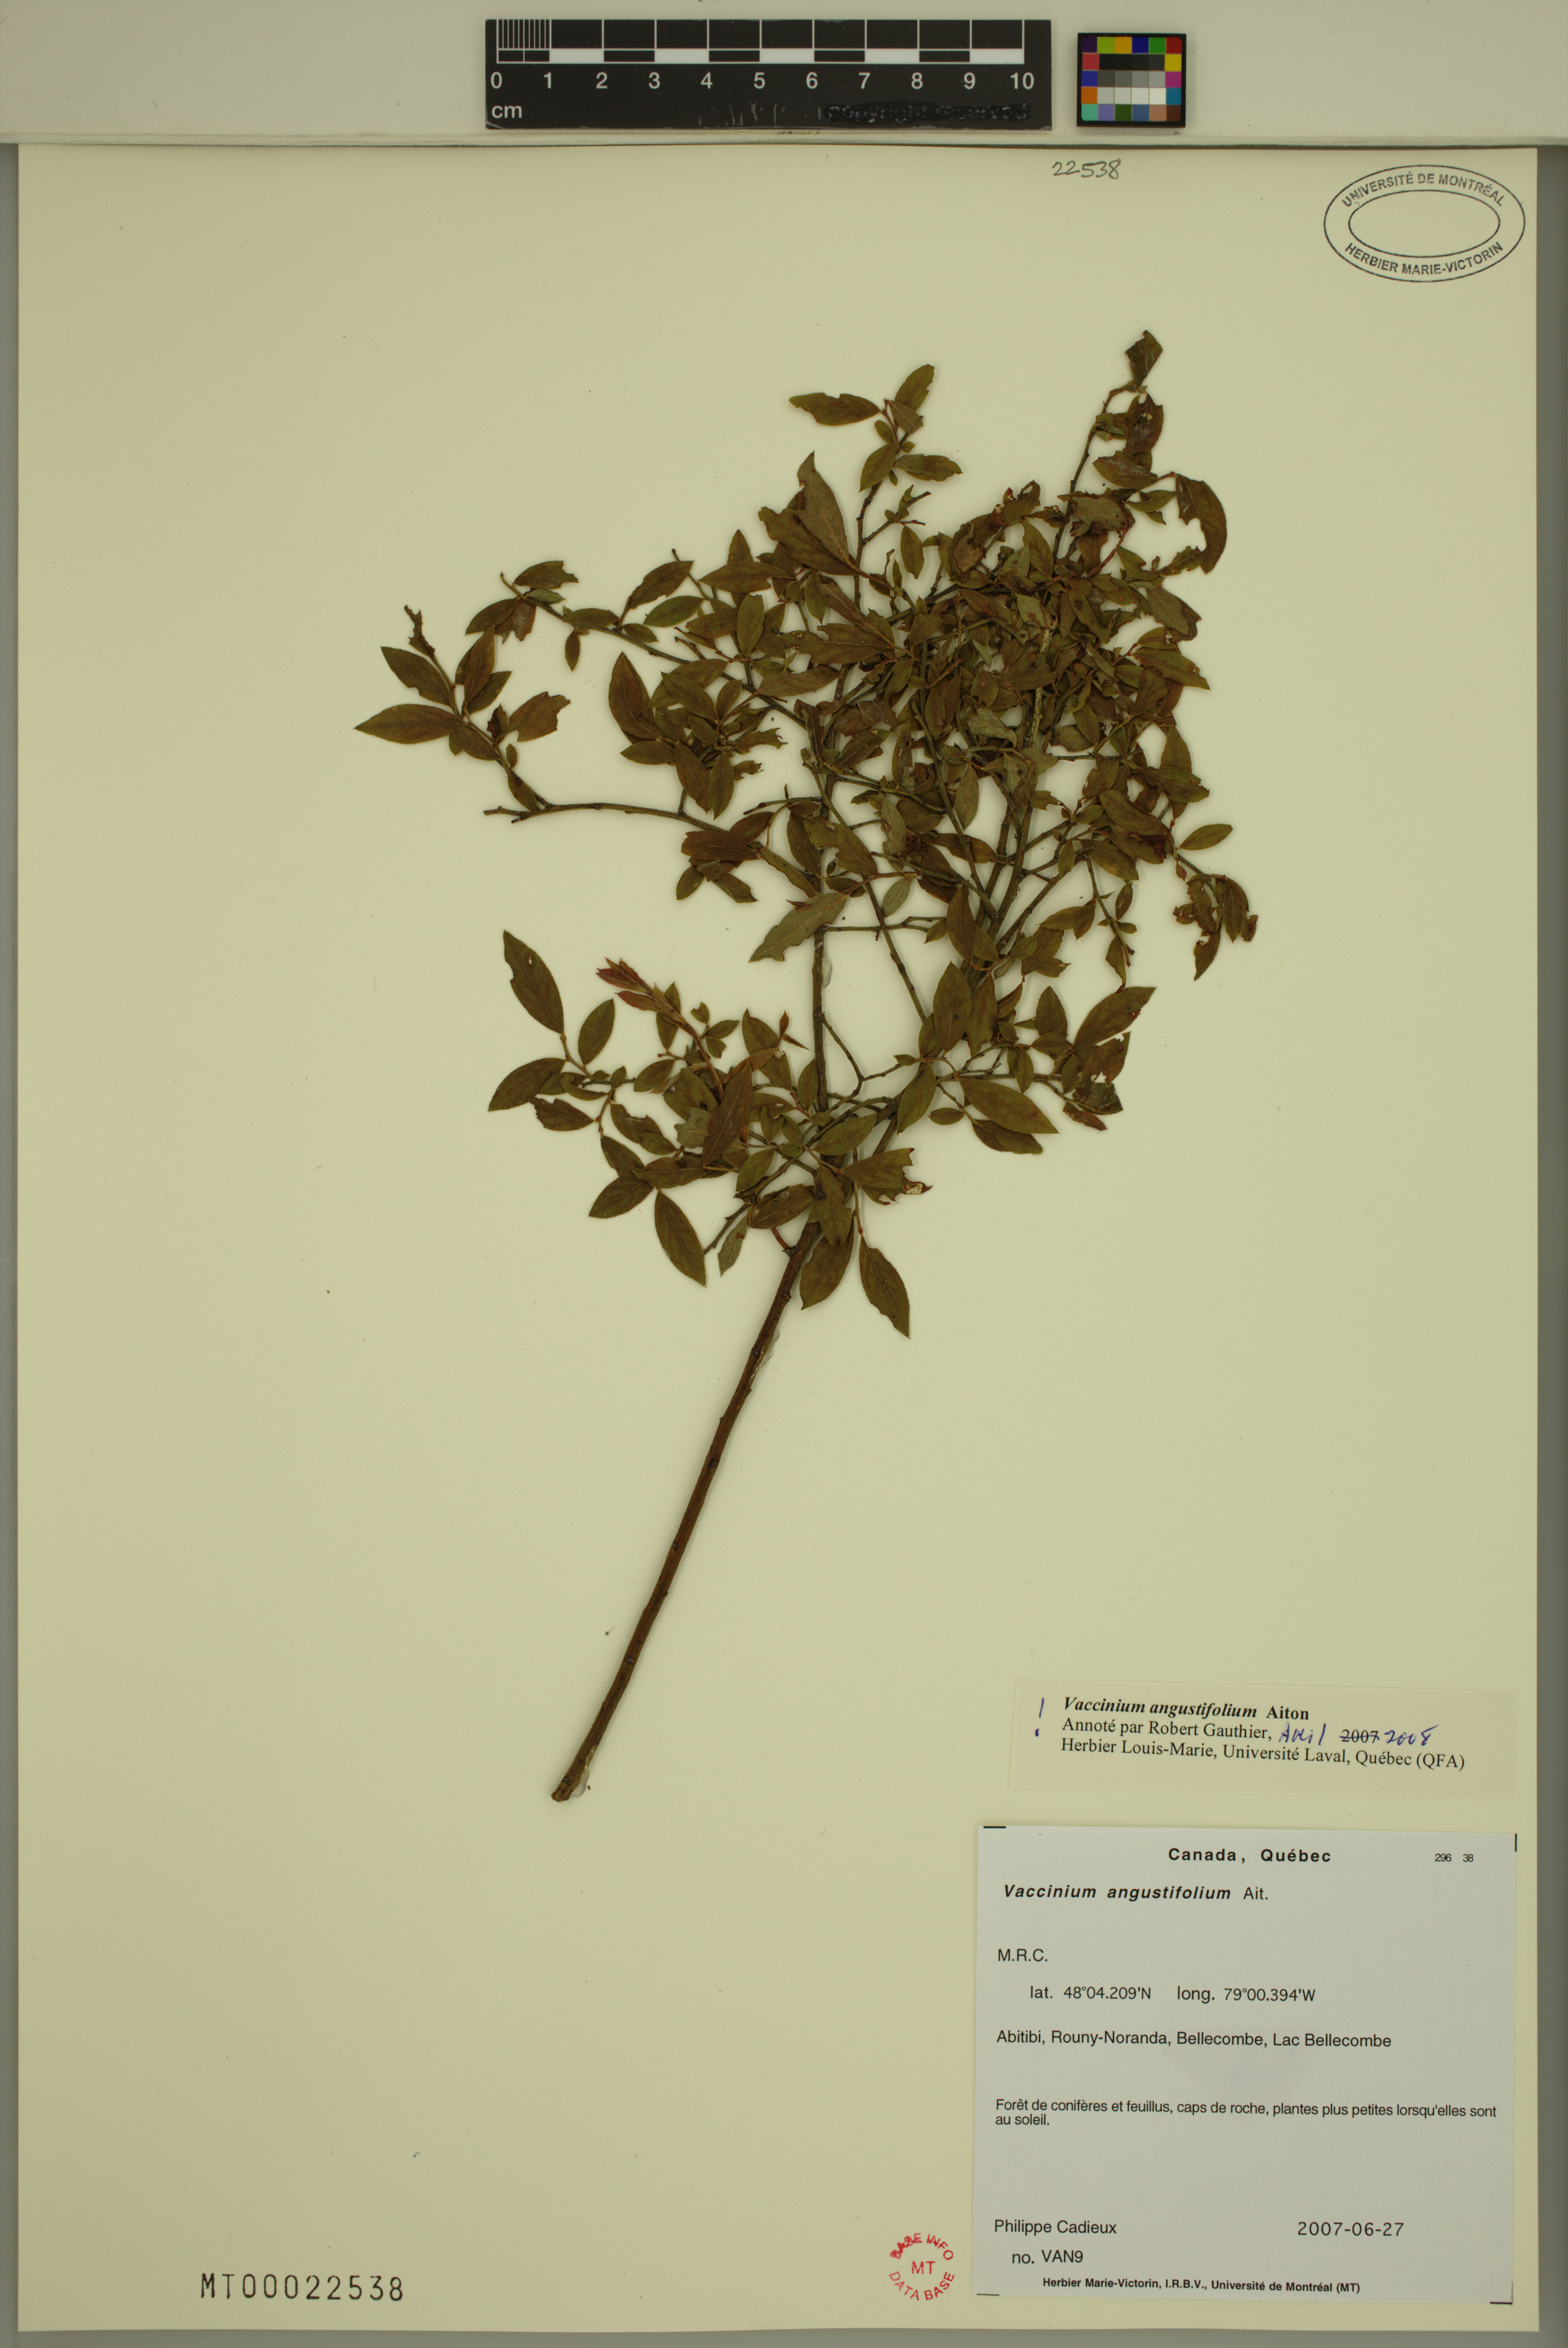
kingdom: Plantae
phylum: Tracheophyta
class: Magnoliopsida
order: Ericales
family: Ericaceae
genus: Vaccinium
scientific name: Vaccinium angustifolium
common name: Early lowbush blueberry
